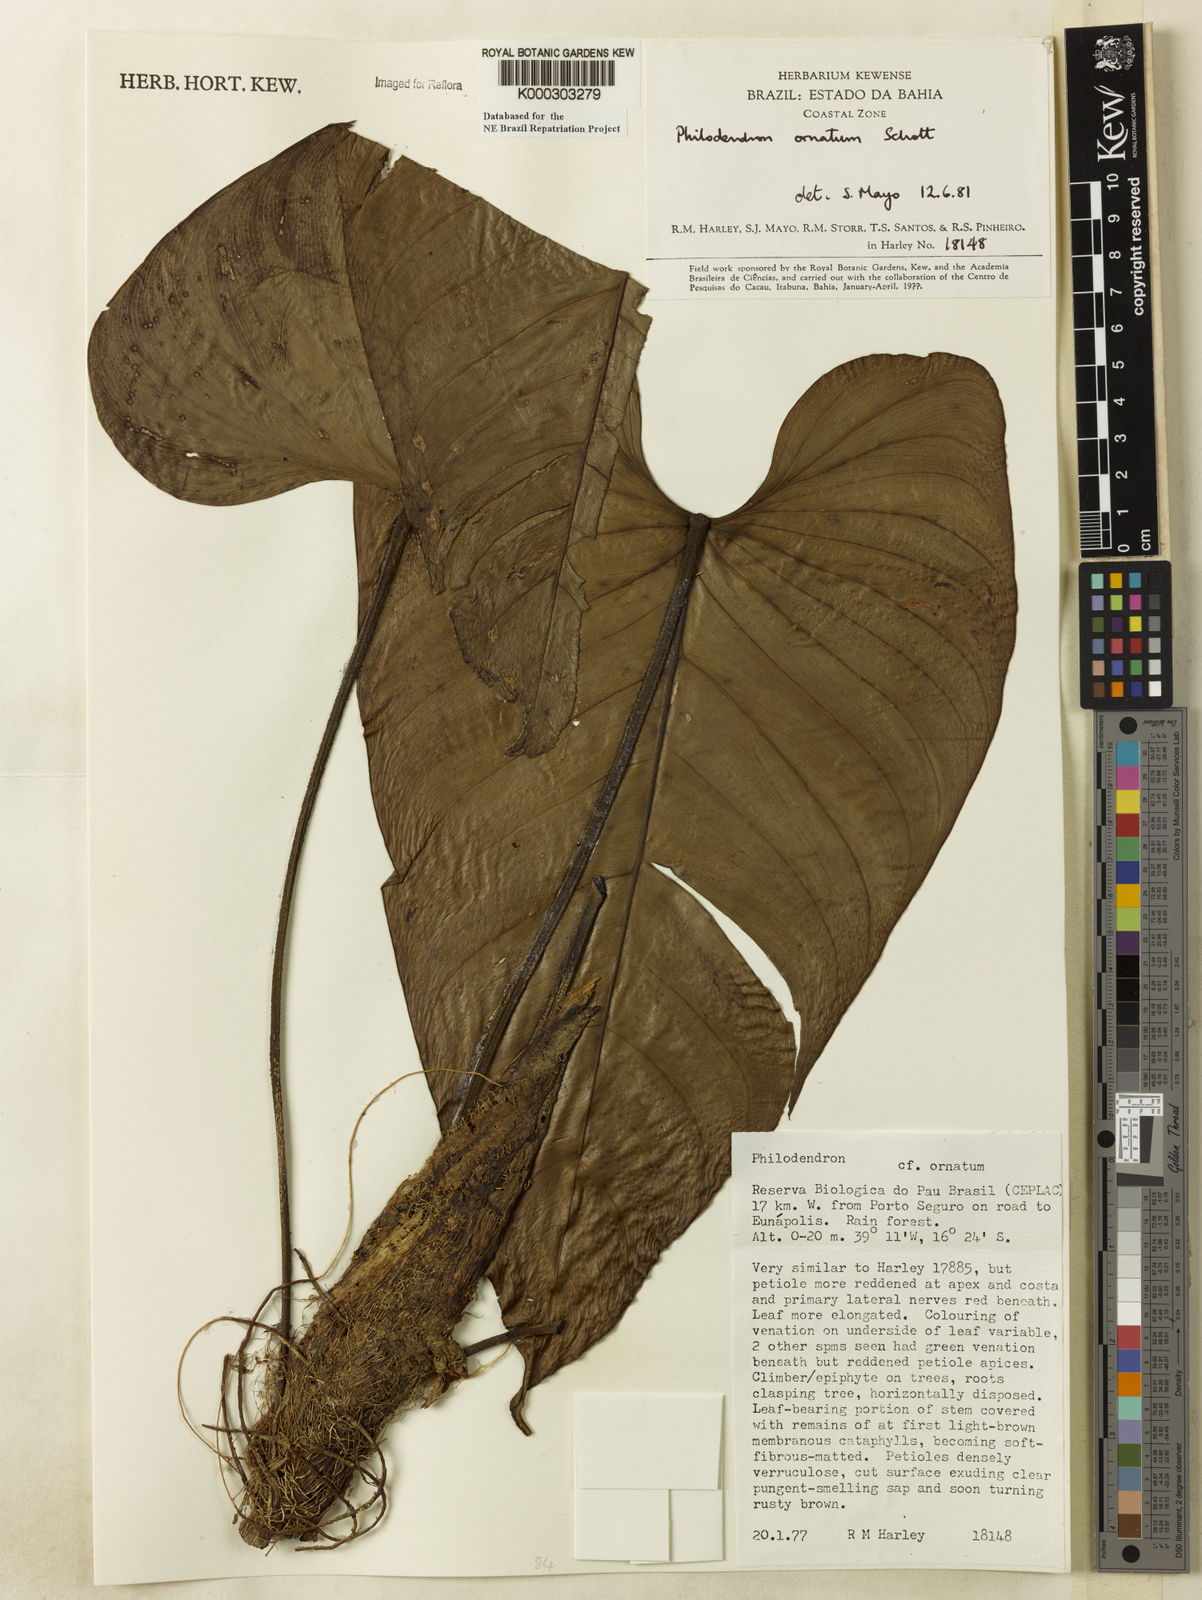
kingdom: Plantae
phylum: Tracheophyta
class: Liliopsida
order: Alismatales
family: Araceae
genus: Philodendron
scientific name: Philodendron ornatum
